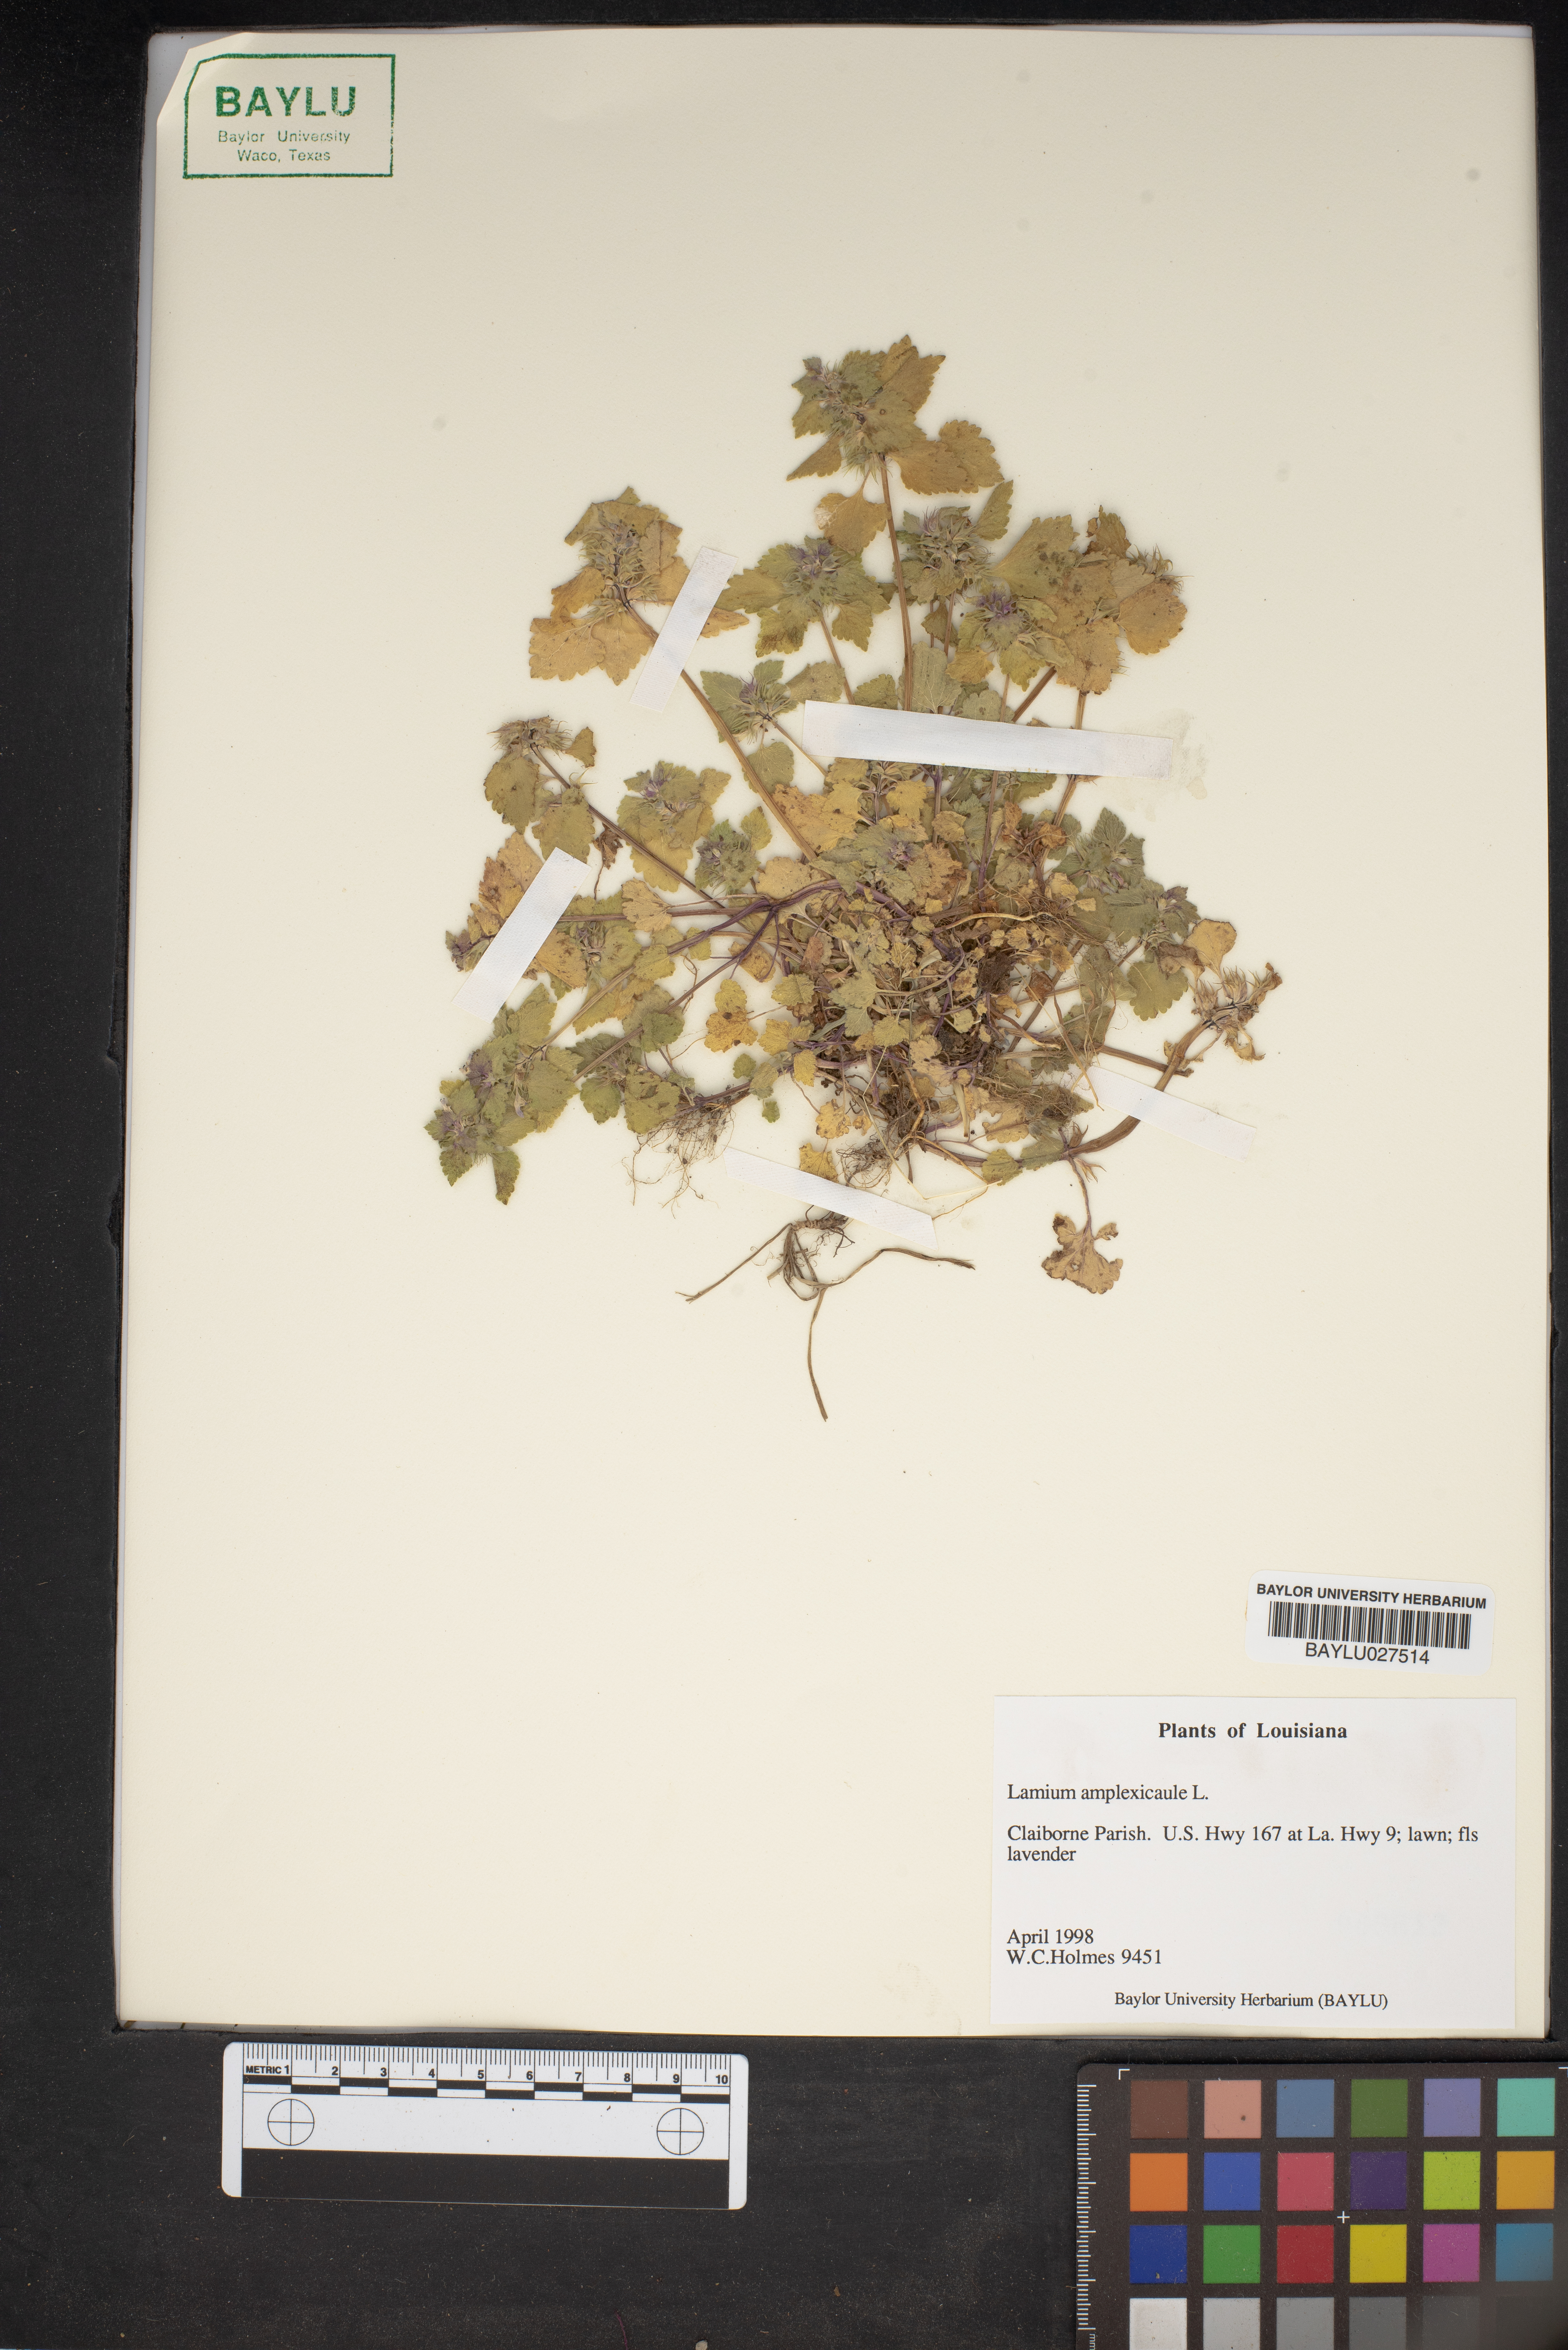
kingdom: Plantae
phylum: Tracheophyta
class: Magnoliopsida
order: Lamiales
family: Lamiaceae
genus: Lamium
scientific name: Lamium amplexicaule
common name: Henbit dead-nettle
